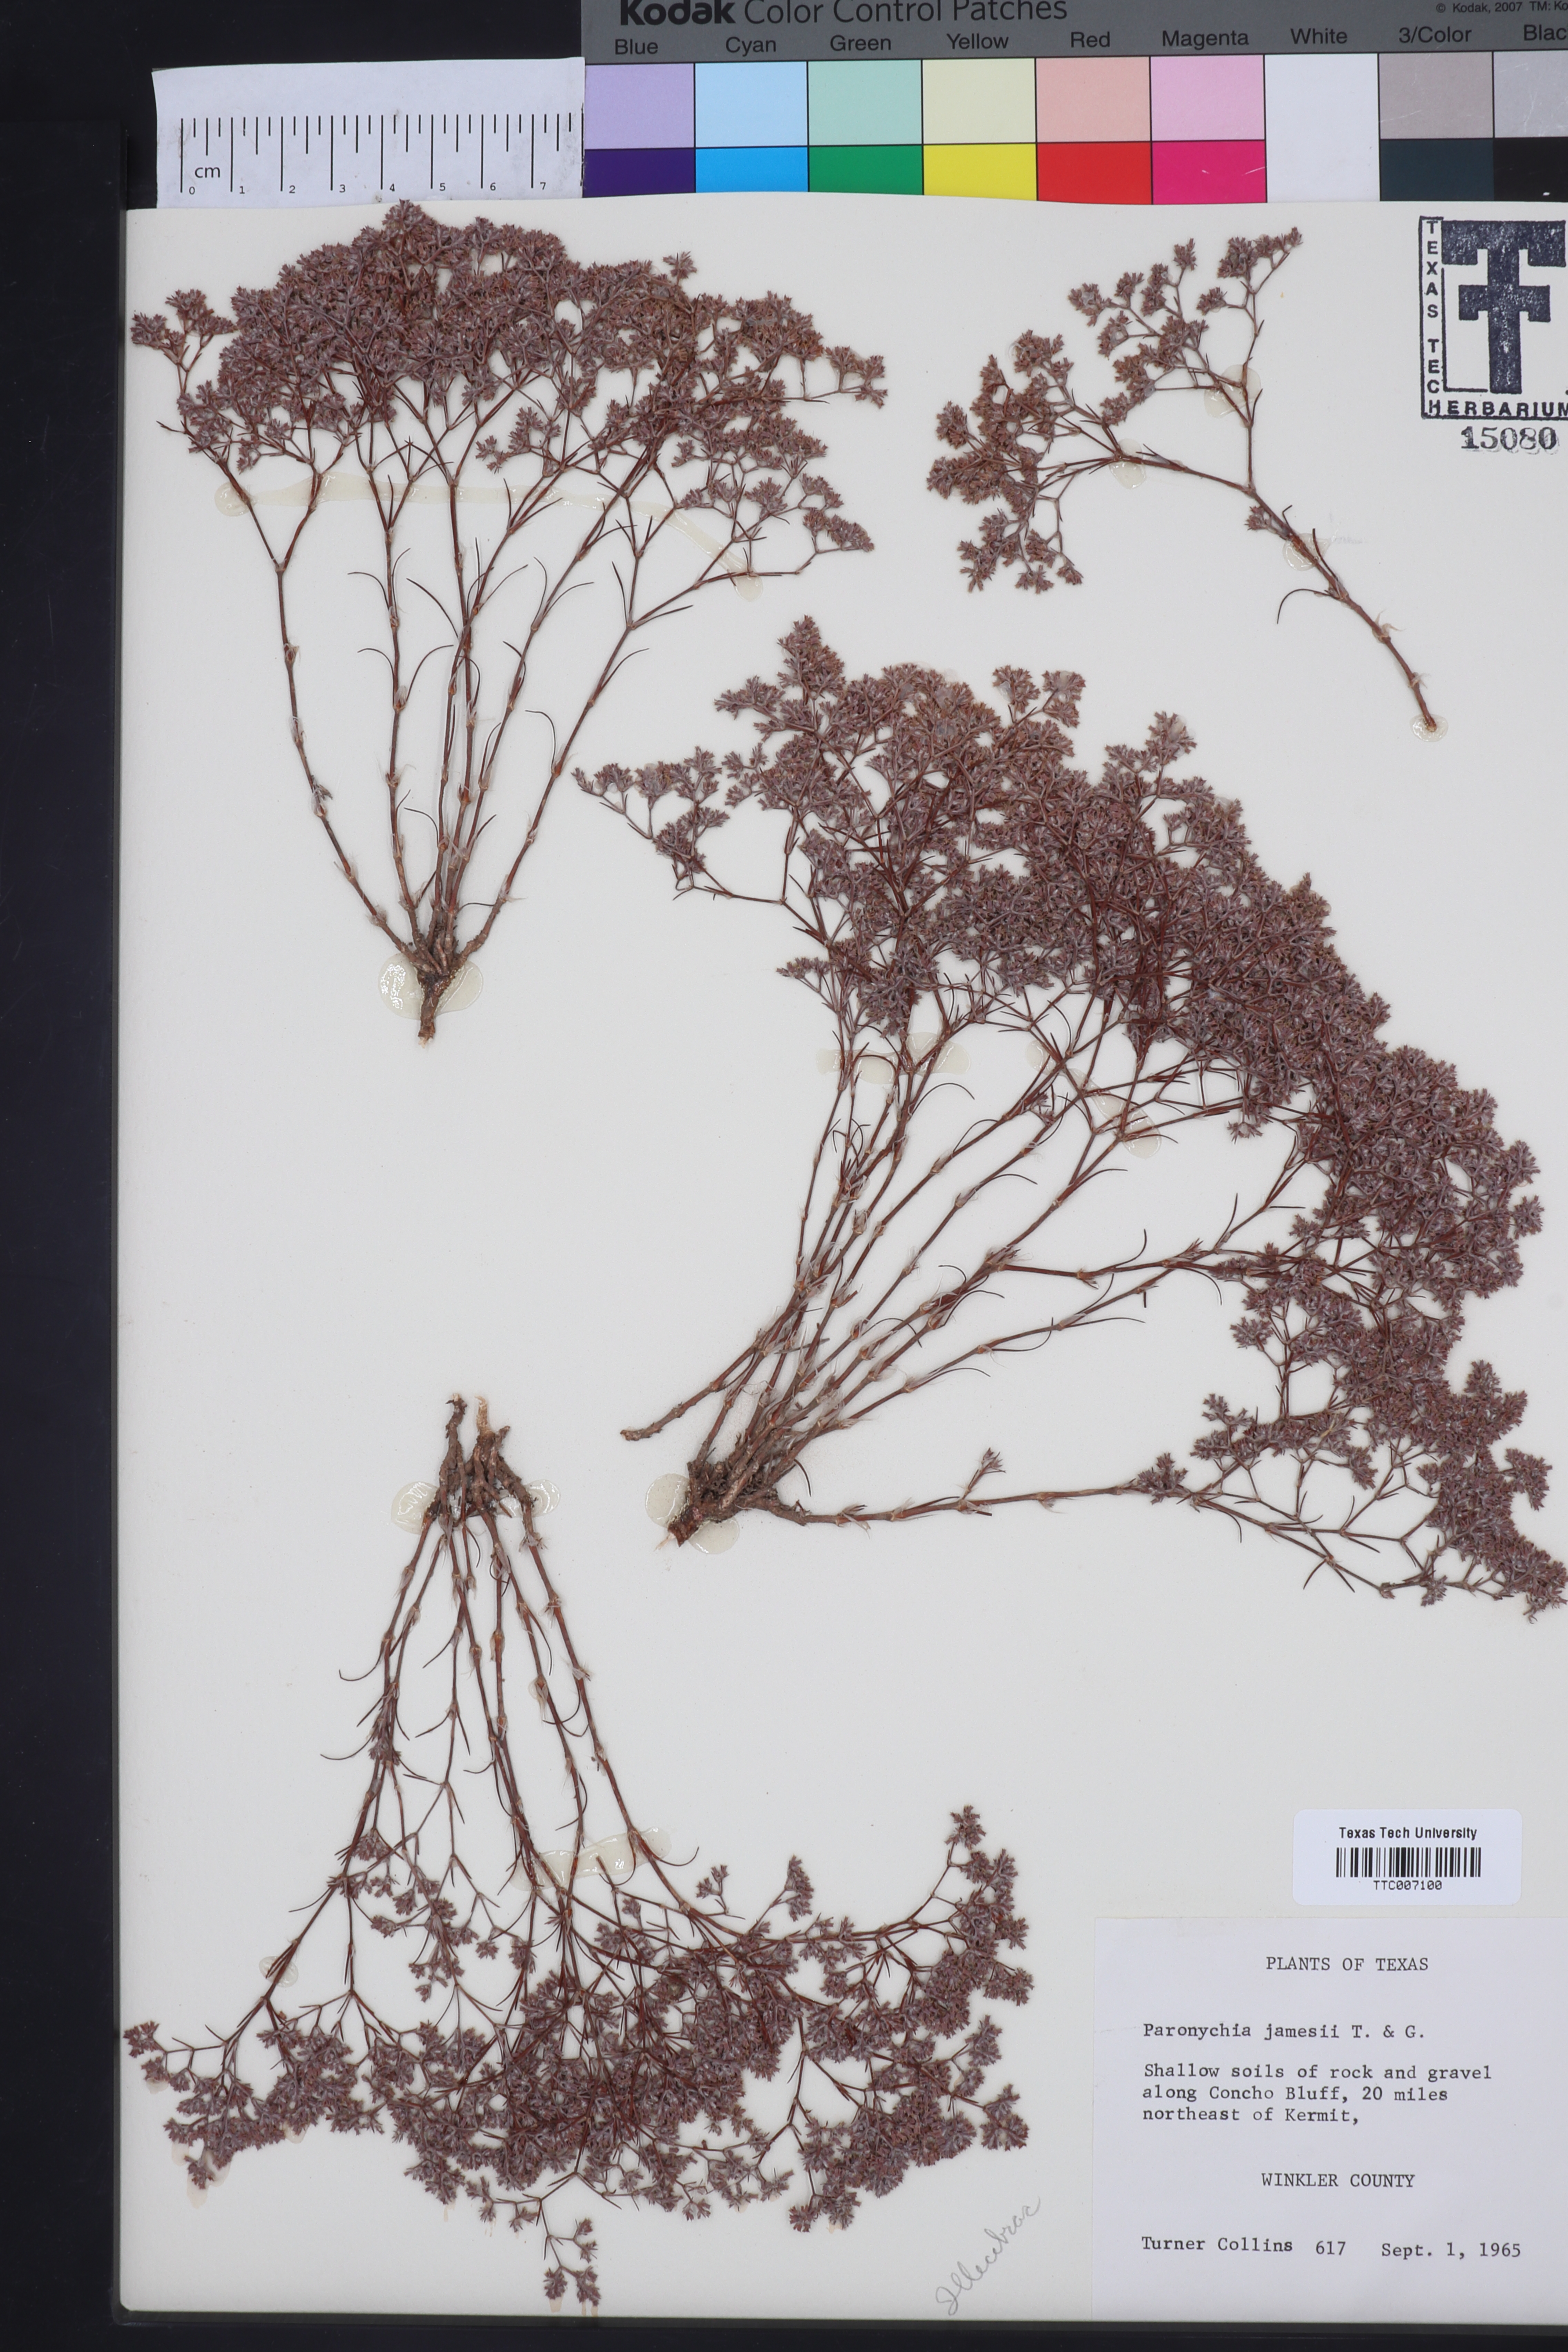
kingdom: Plantae
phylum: Tracheophyta
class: Magnoliopsida
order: Caryophyllales
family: Caryophyllaceae
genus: Paronychia
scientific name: Paronychia jamesii
